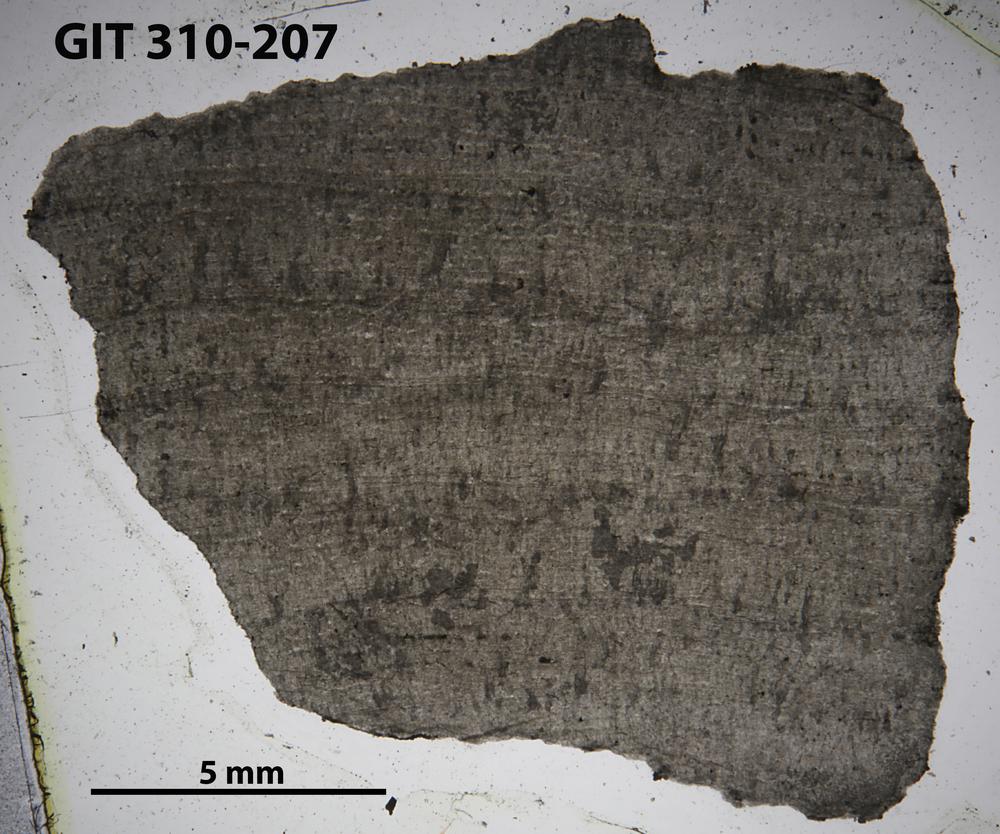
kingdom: Animalia
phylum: Porifera
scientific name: Porifera
